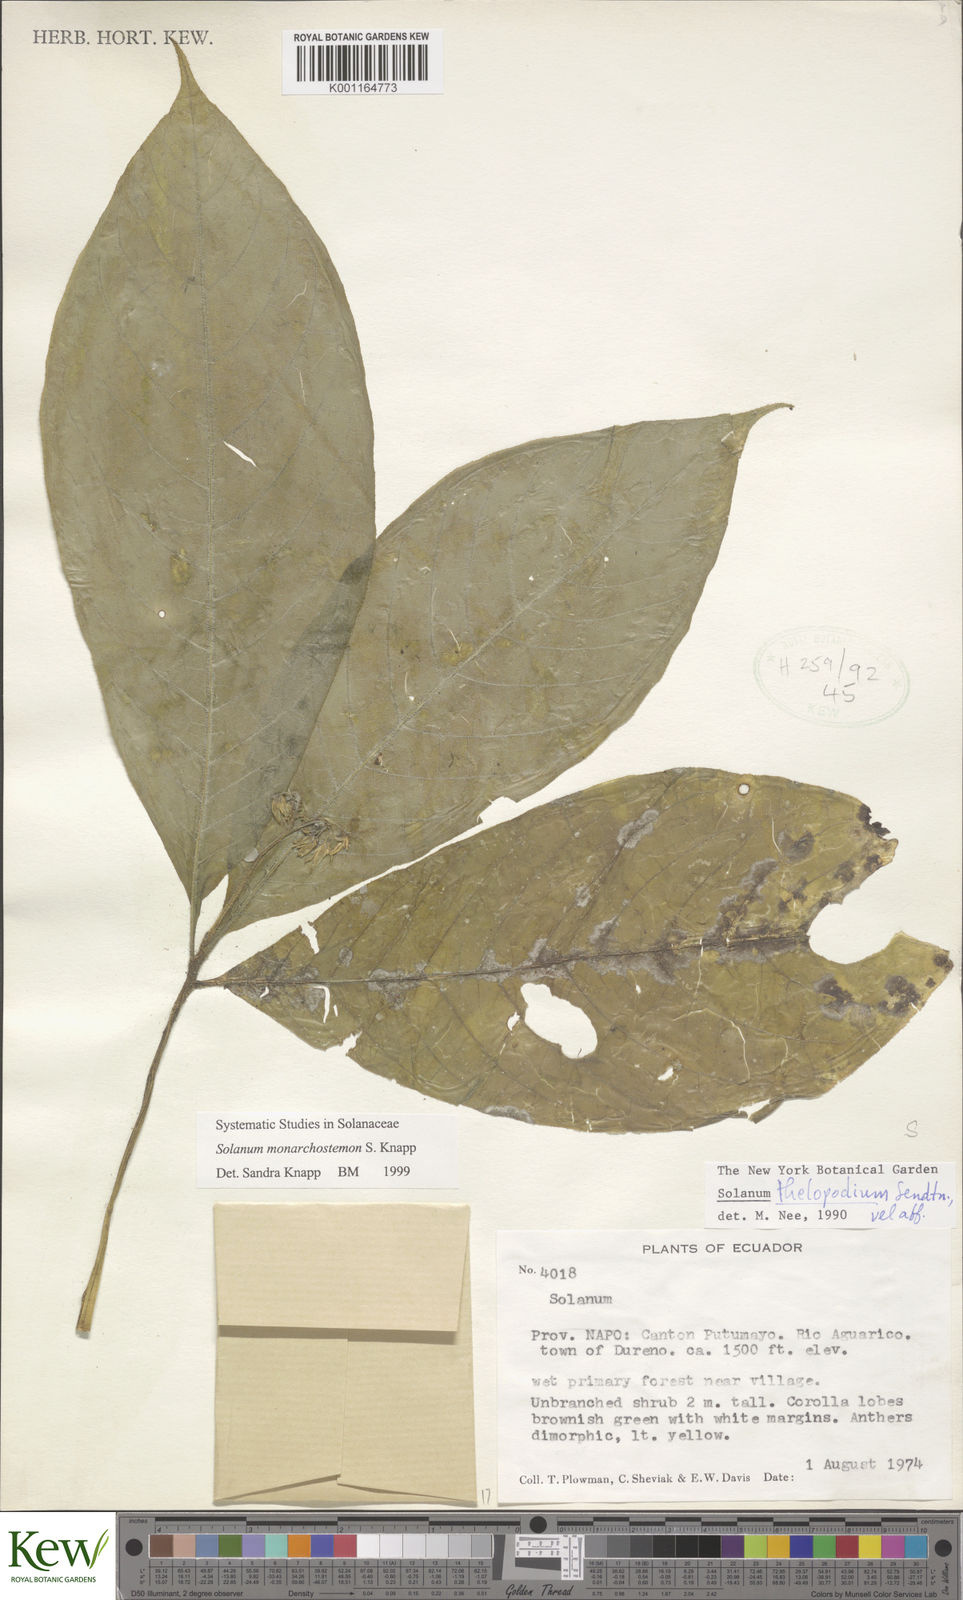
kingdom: Plantae
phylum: Tracheophyta
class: Magnoliopsida
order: Solanales
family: Solanaceae
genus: Solanum
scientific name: Solanum monarchostemon
